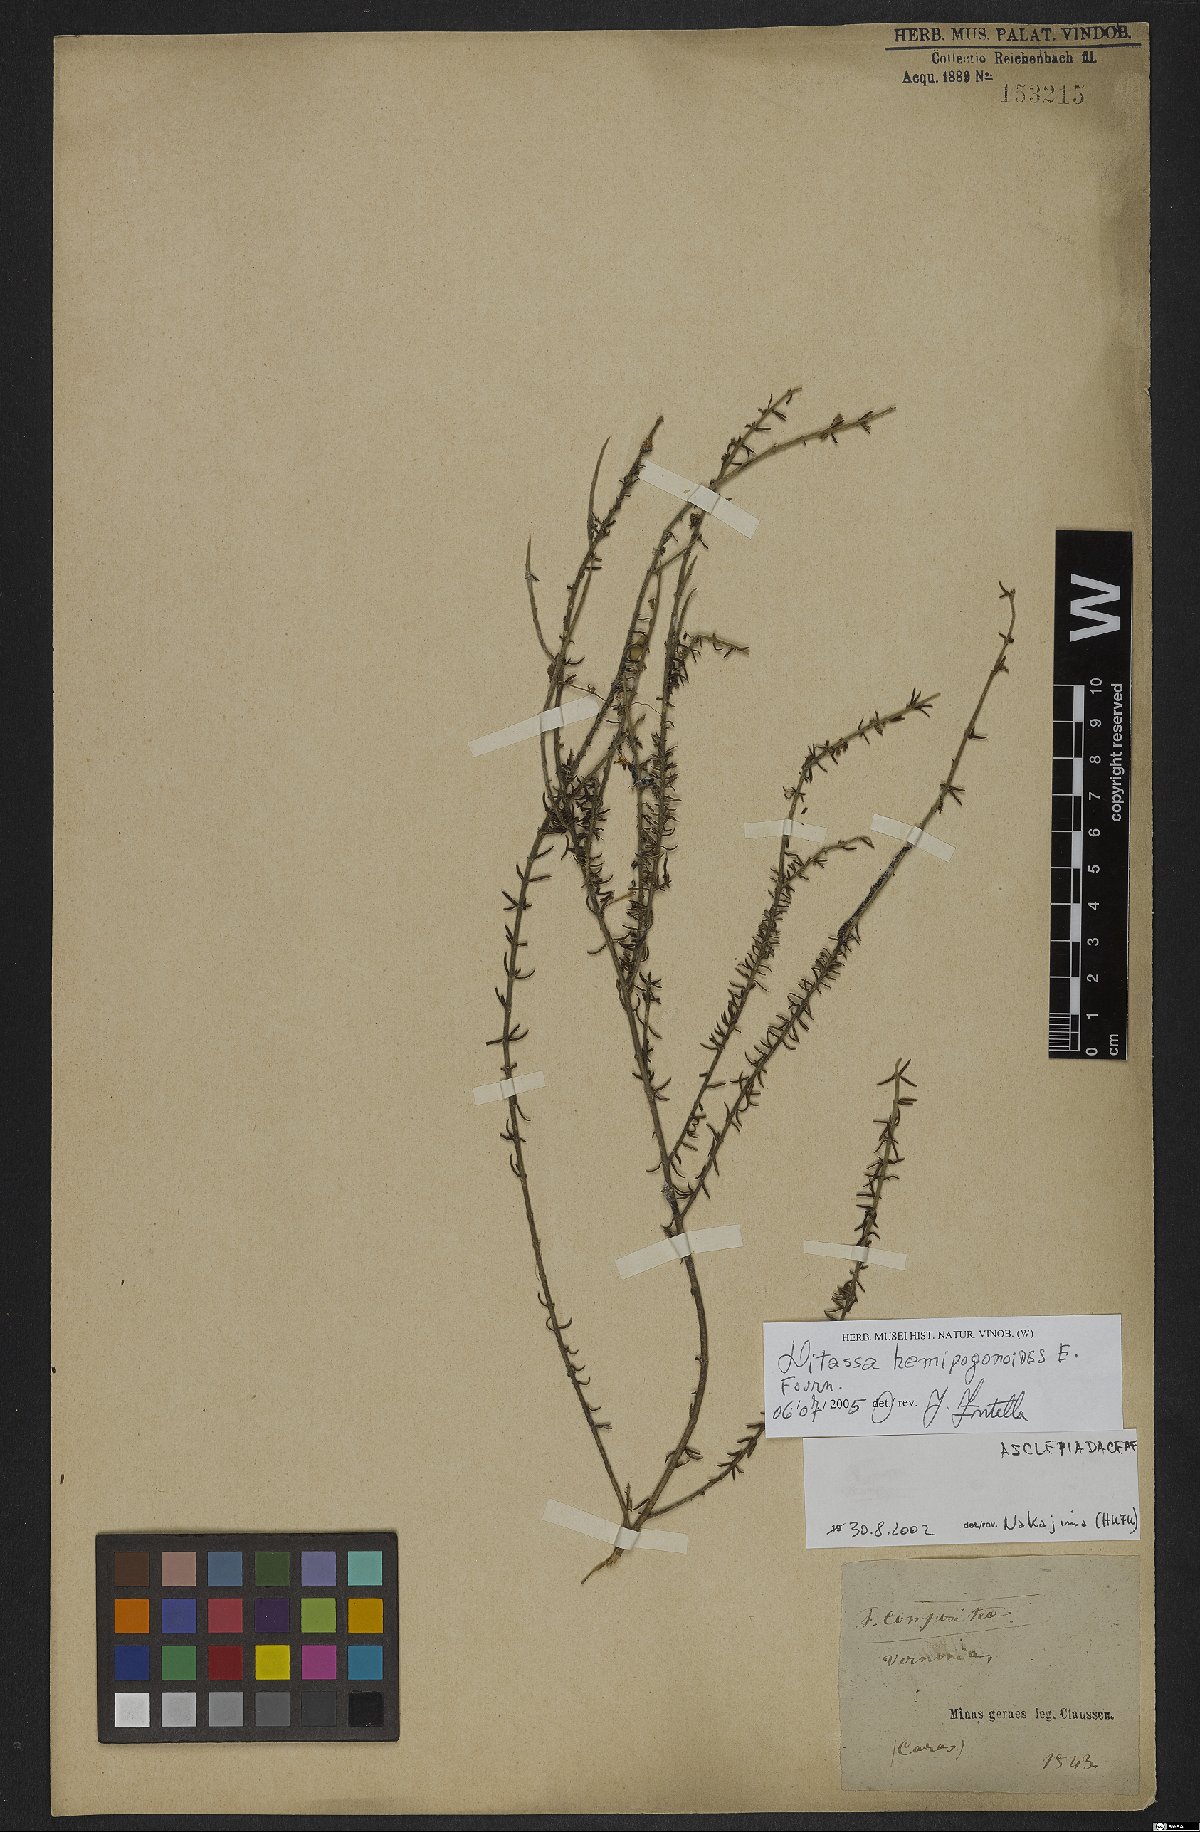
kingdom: Plantae
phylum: Tracheophyta
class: Magnoliopsida
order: Gentianales
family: Apocynaceae
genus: Minaria
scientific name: Minaria hemipogonoides
